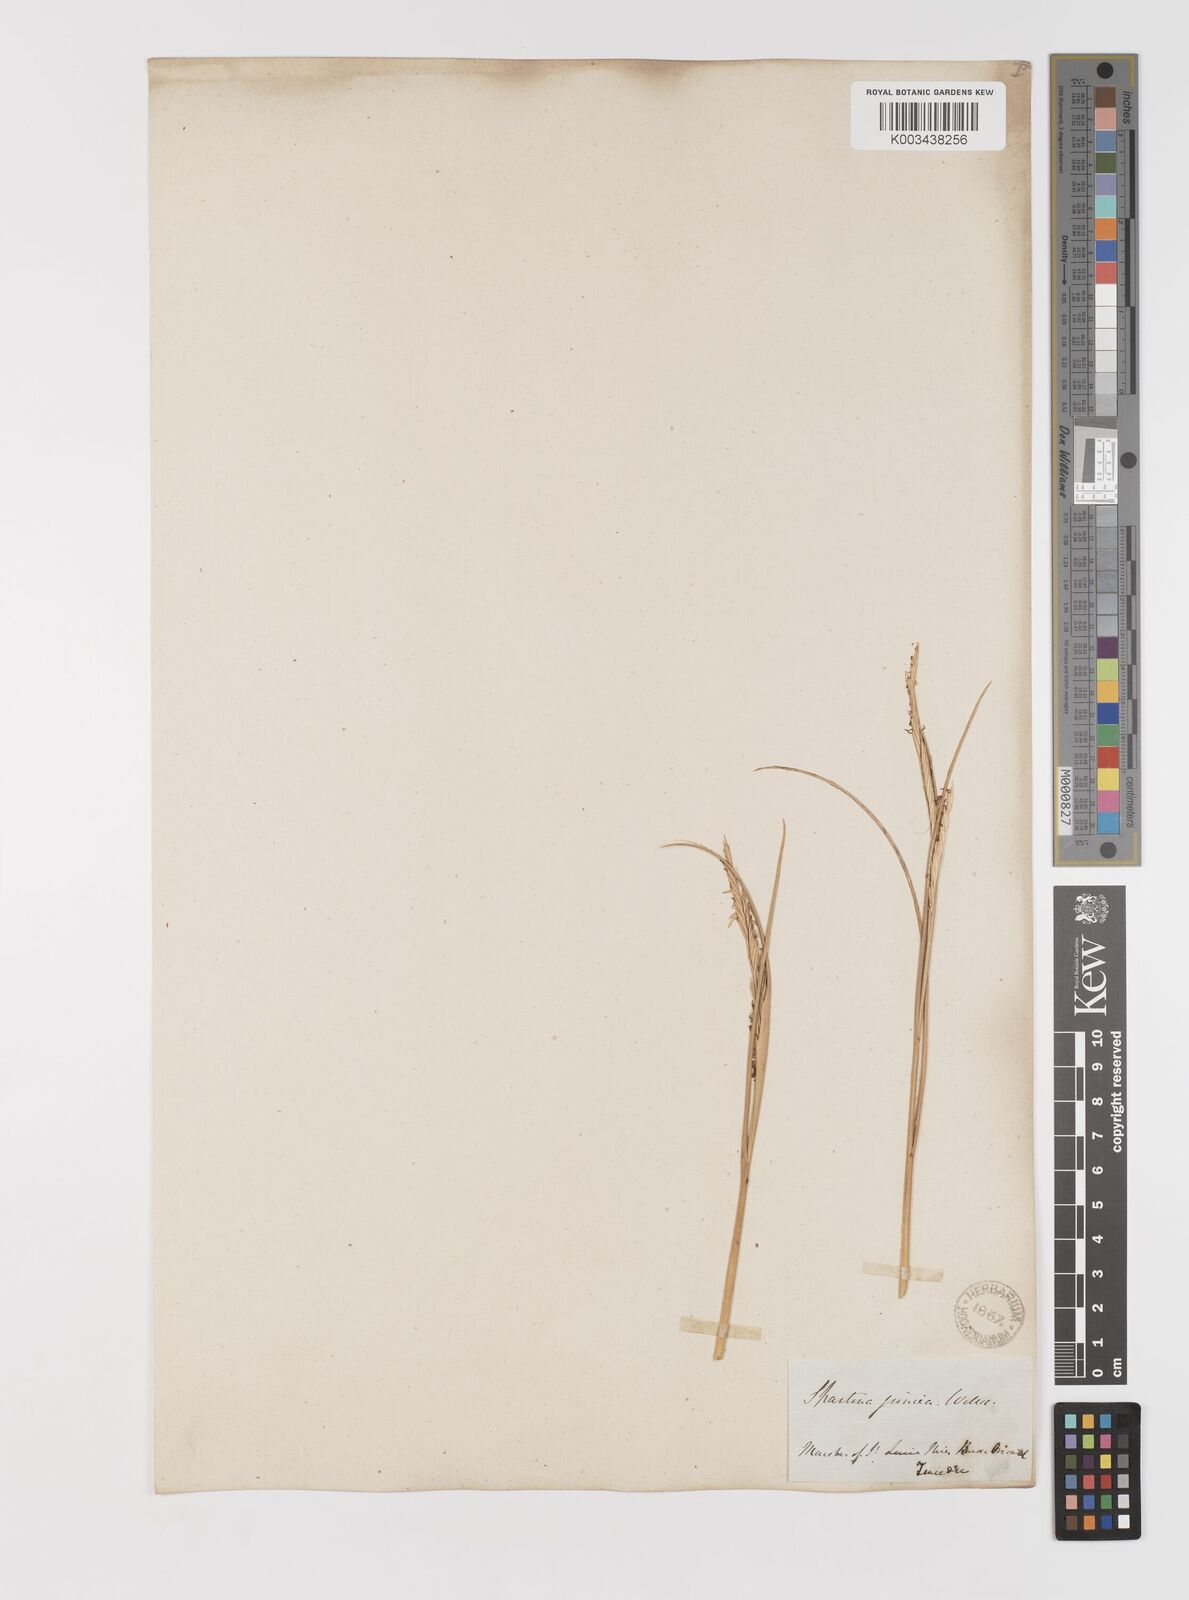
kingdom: Plantae
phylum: Tracheophyta
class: Liliopsida
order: Poales
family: Poaceae
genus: Sporobolus
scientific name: Sporobolus montevidensis
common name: Montevideo dropseed
